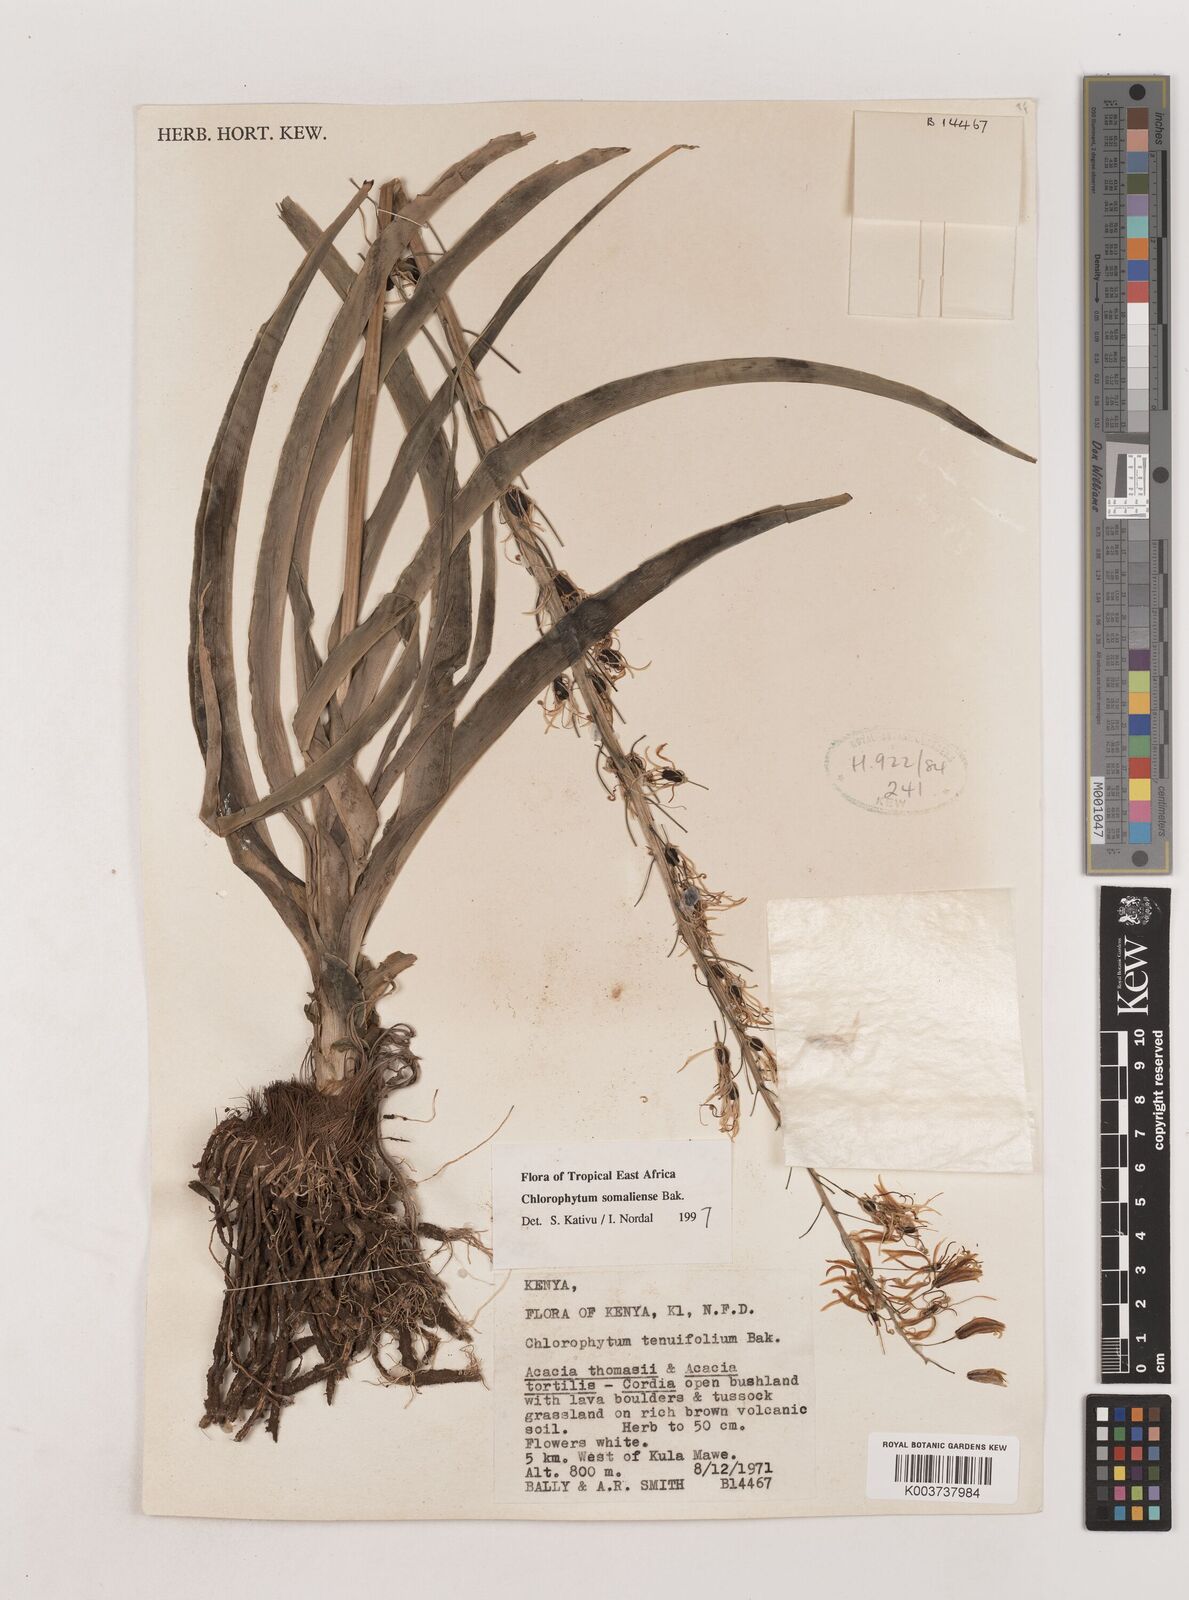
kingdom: Plantae
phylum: Tracheophyta
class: Liliopsida
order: Asparagales
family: Asparagaceae
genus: Chlorophytum
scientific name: Chlorophytum somaliense
